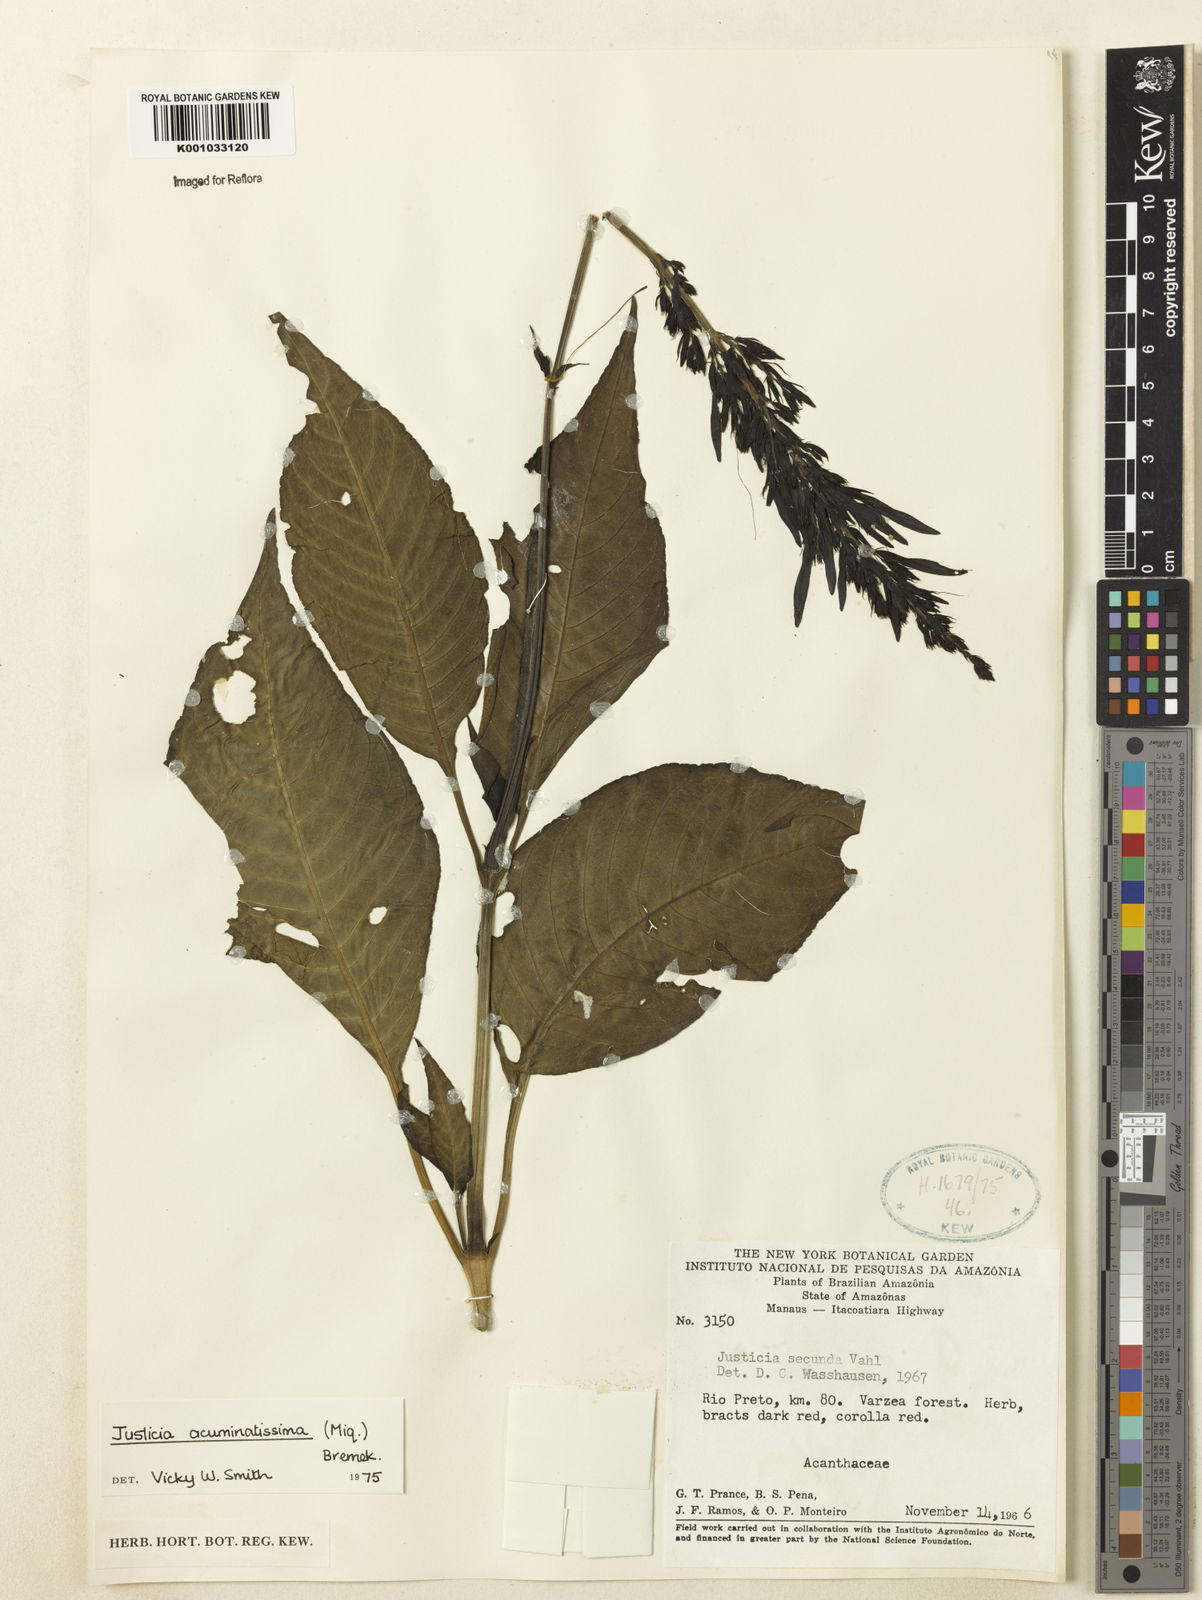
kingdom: Plantae
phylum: Tracheophyta
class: Magnoliopsida
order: Lamiales
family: Acanthaceae
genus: Dianthera
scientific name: Dianthera calycina
